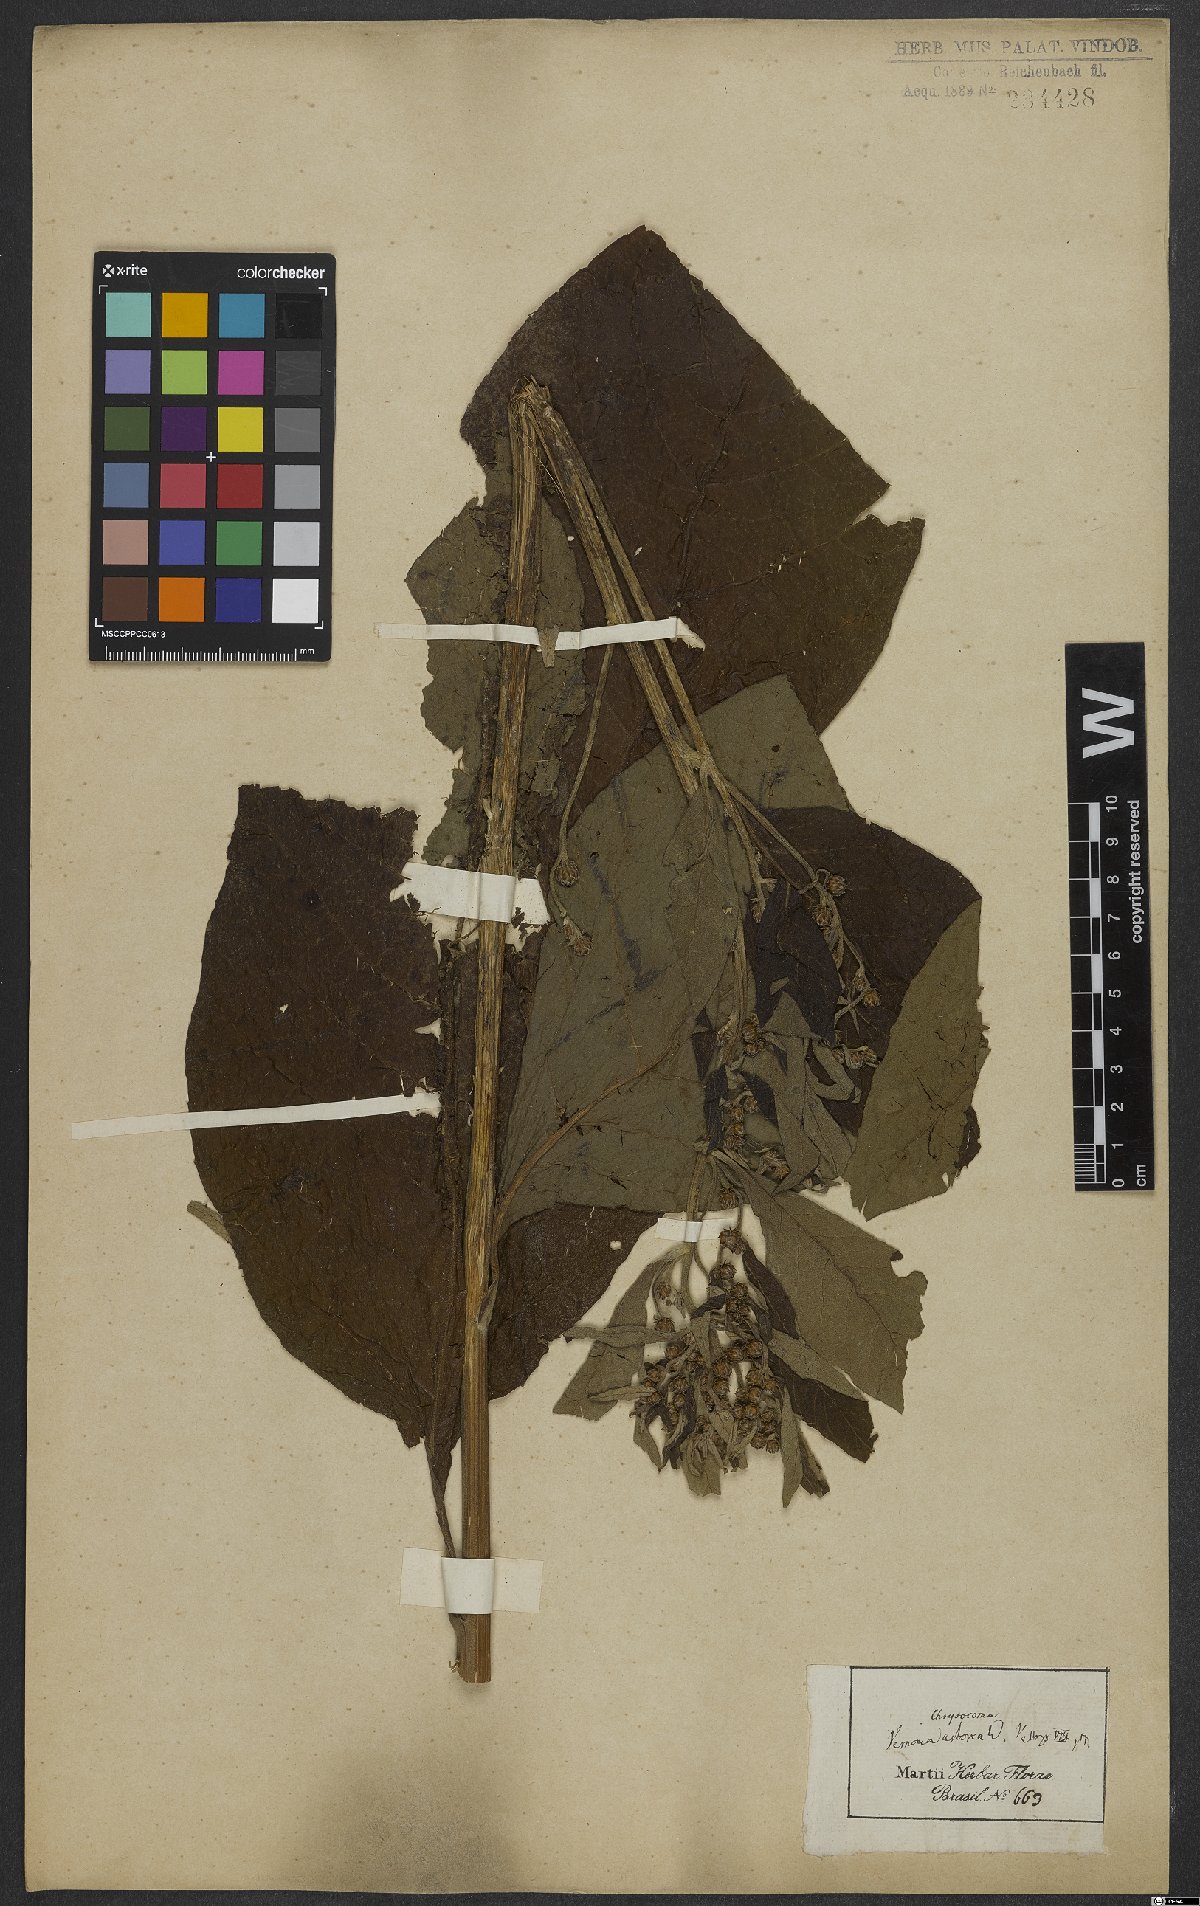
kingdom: Plantae
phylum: Tracheophyta
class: Magnoliopsida
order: Asterales
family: Asteraceae
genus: Vernonanthura
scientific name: Vernonanthura tweedieana
